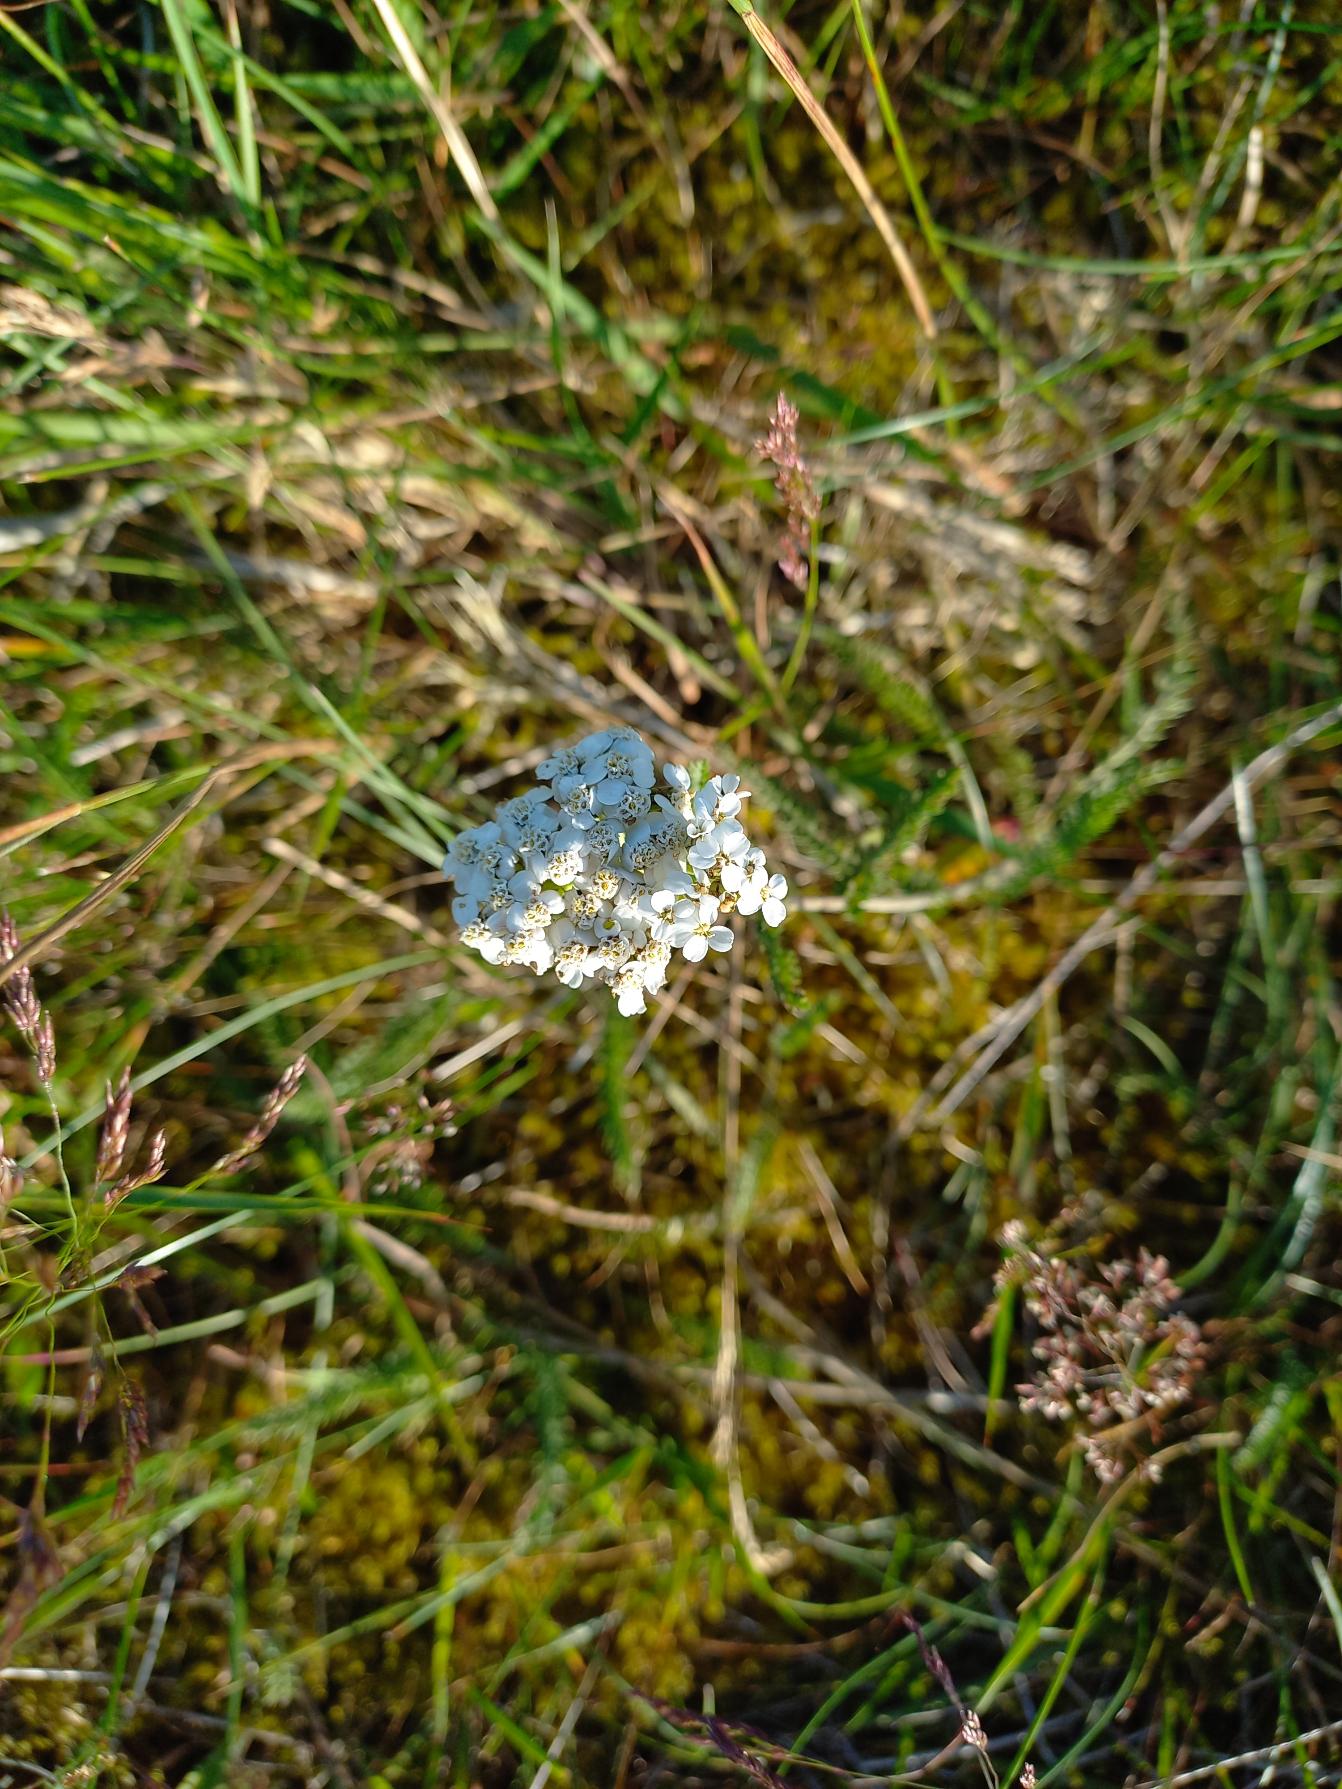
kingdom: Plantae
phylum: Tracheophyta
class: Magnoliopsida
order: Asterales
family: Asteraceae
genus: Achillea
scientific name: Achillea millefolium
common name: Almindelig røllike
